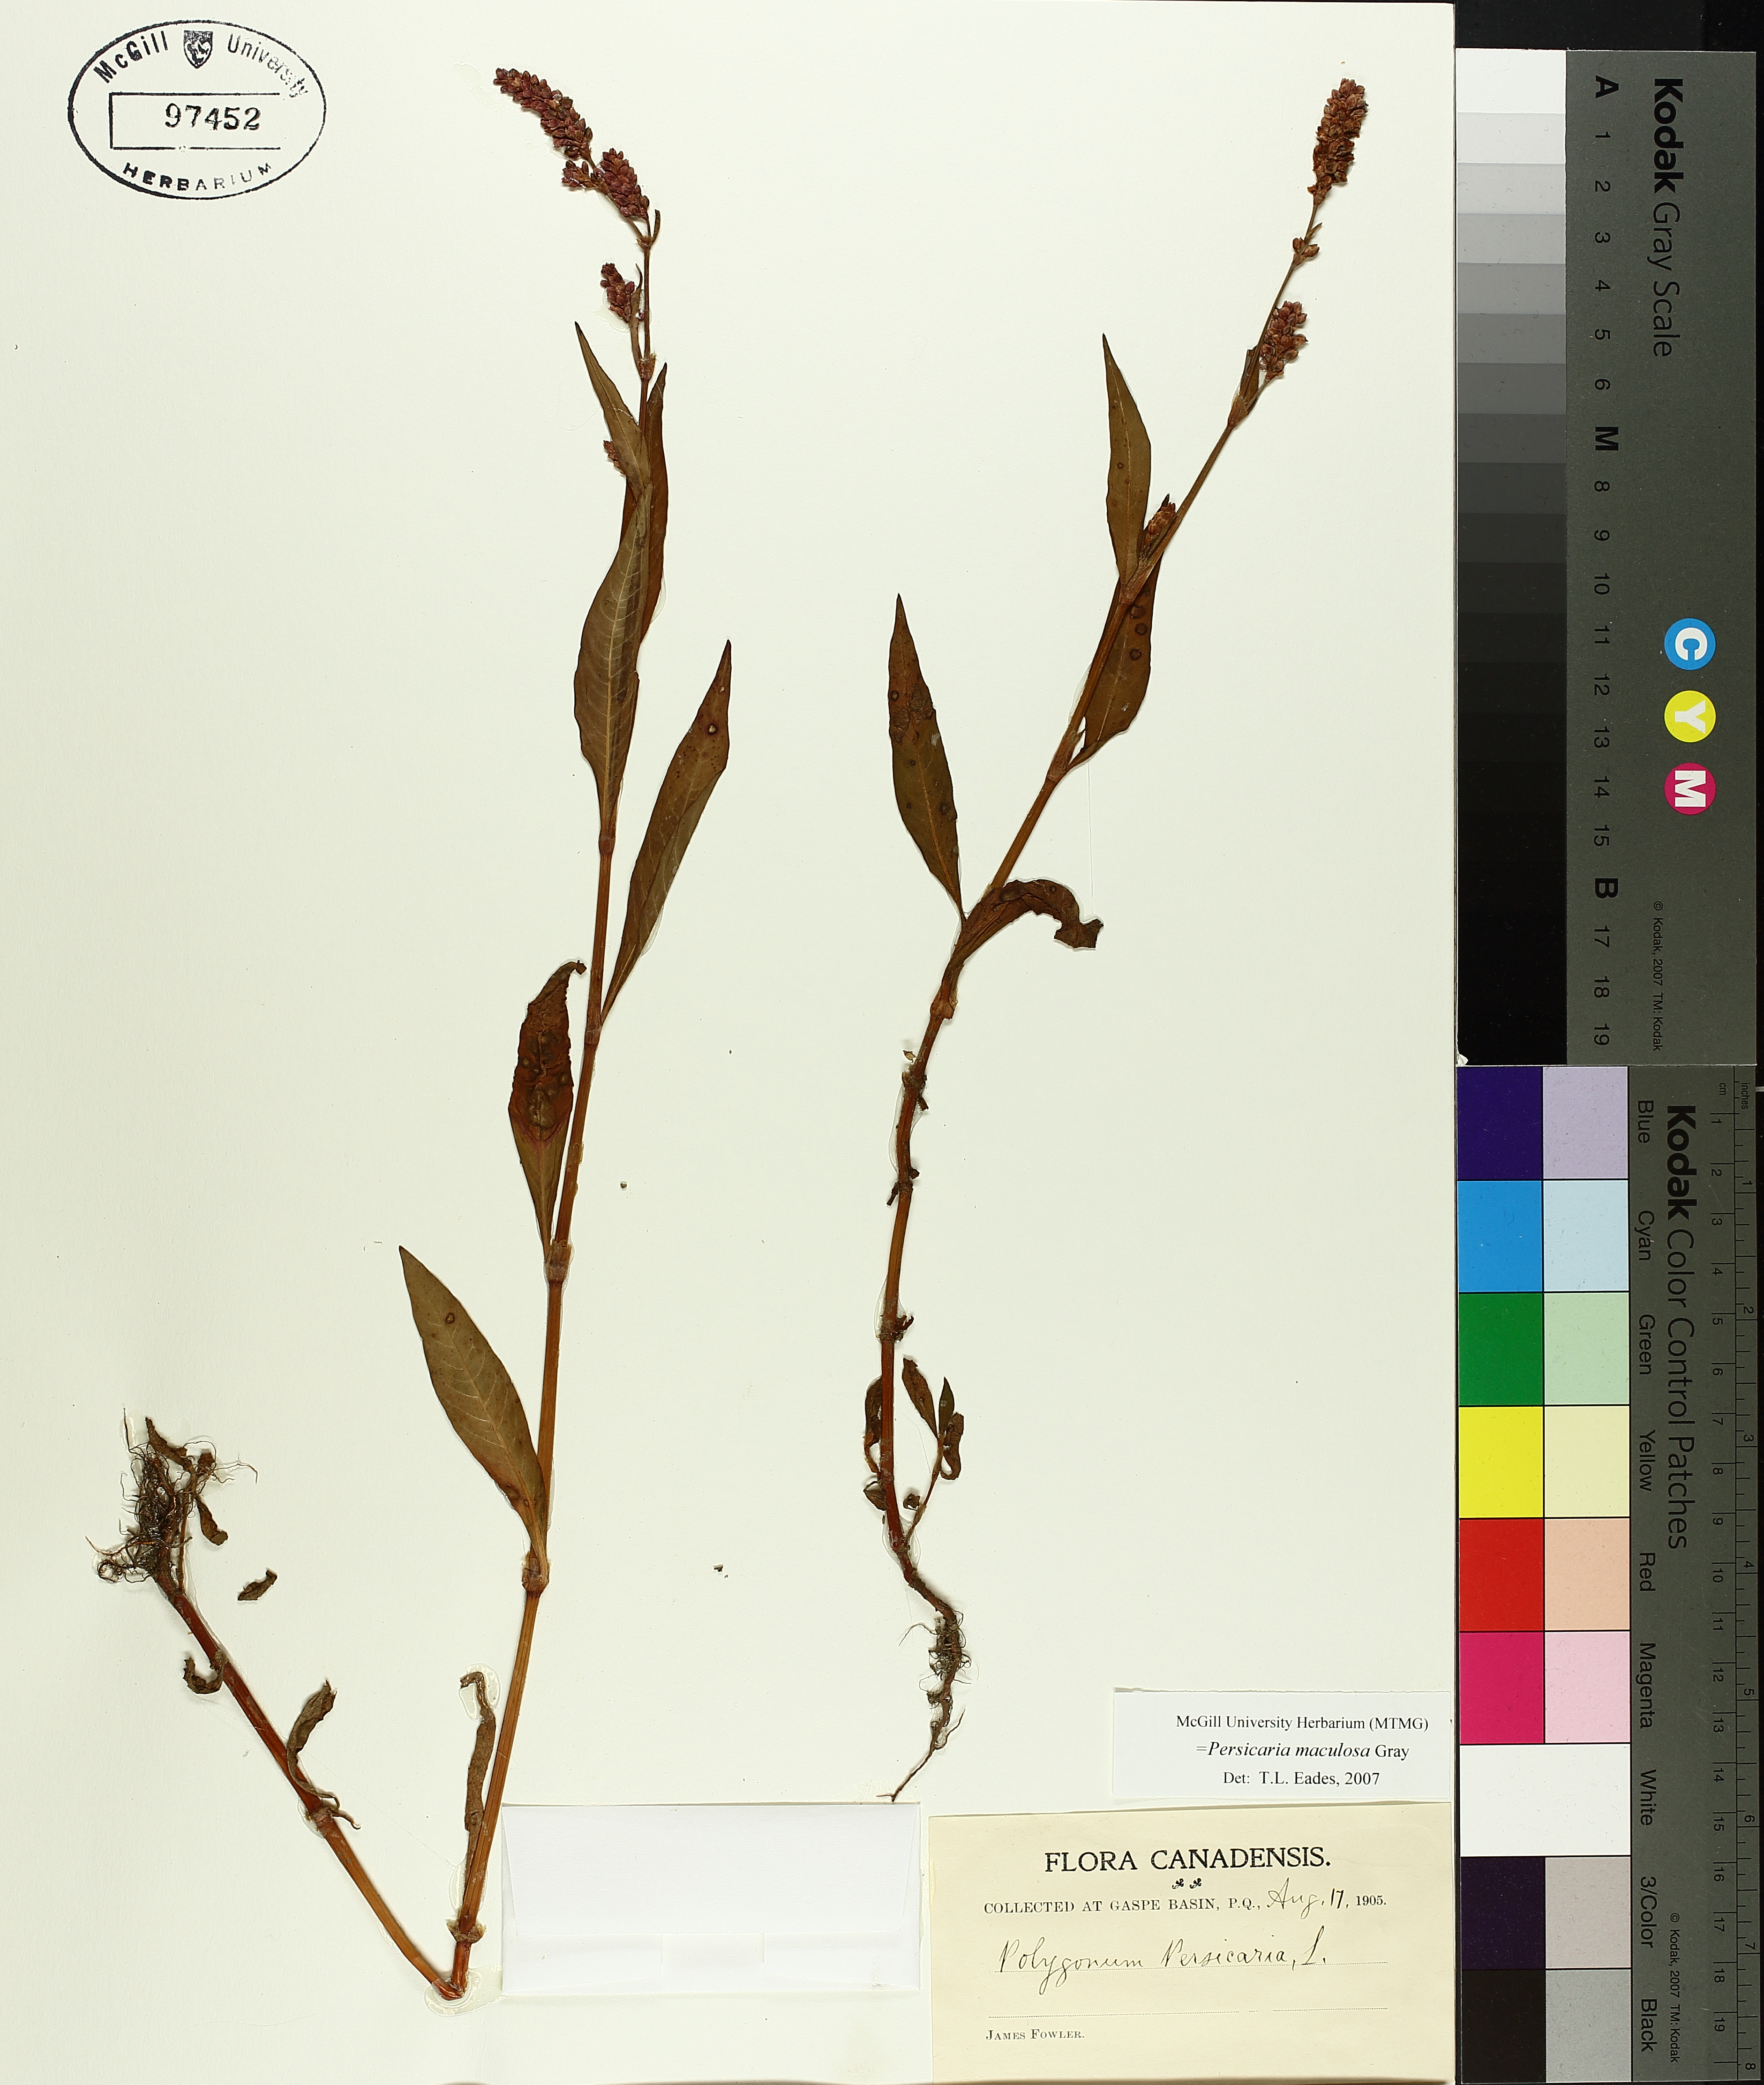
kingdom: Plantae
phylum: Tracheophyta
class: Magnoliopsida
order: Caryophyllales
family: Polygonaceae
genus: Persicaria
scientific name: Persicaria maculosa
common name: Redshank
